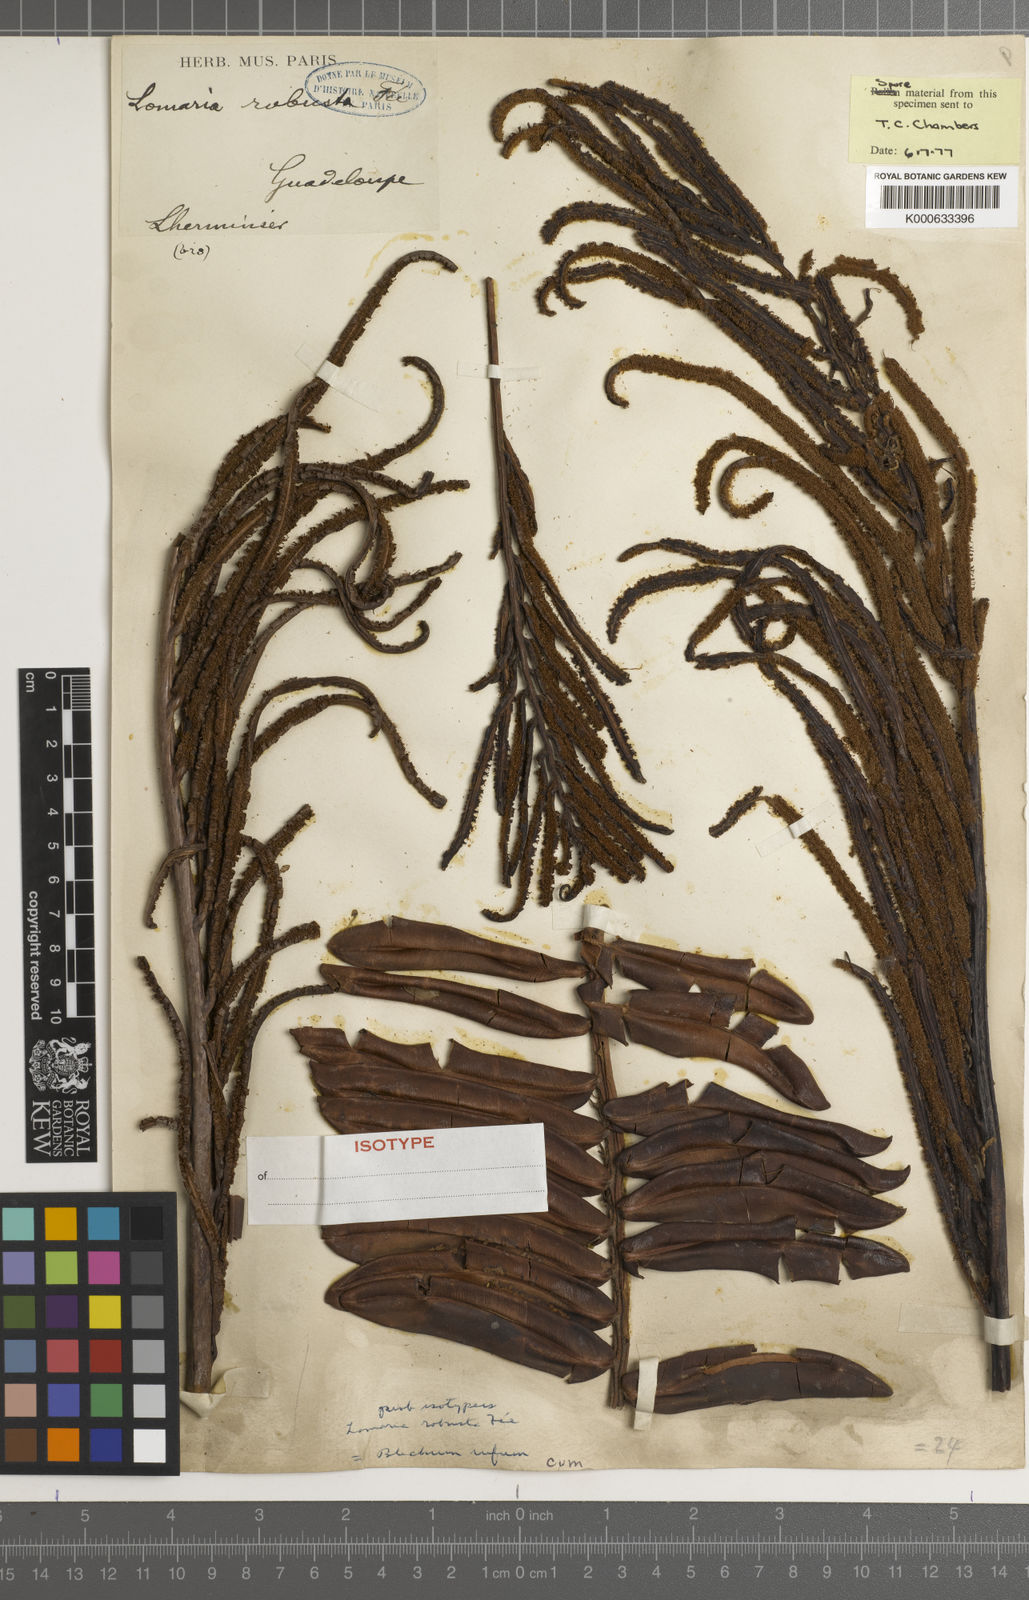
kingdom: Plantae
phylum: Tracheophyta
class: Polypodiopsida
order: Polypodiales
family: Blechnaceae
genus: Lomariocycas
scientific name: Lomariocycas rufa
